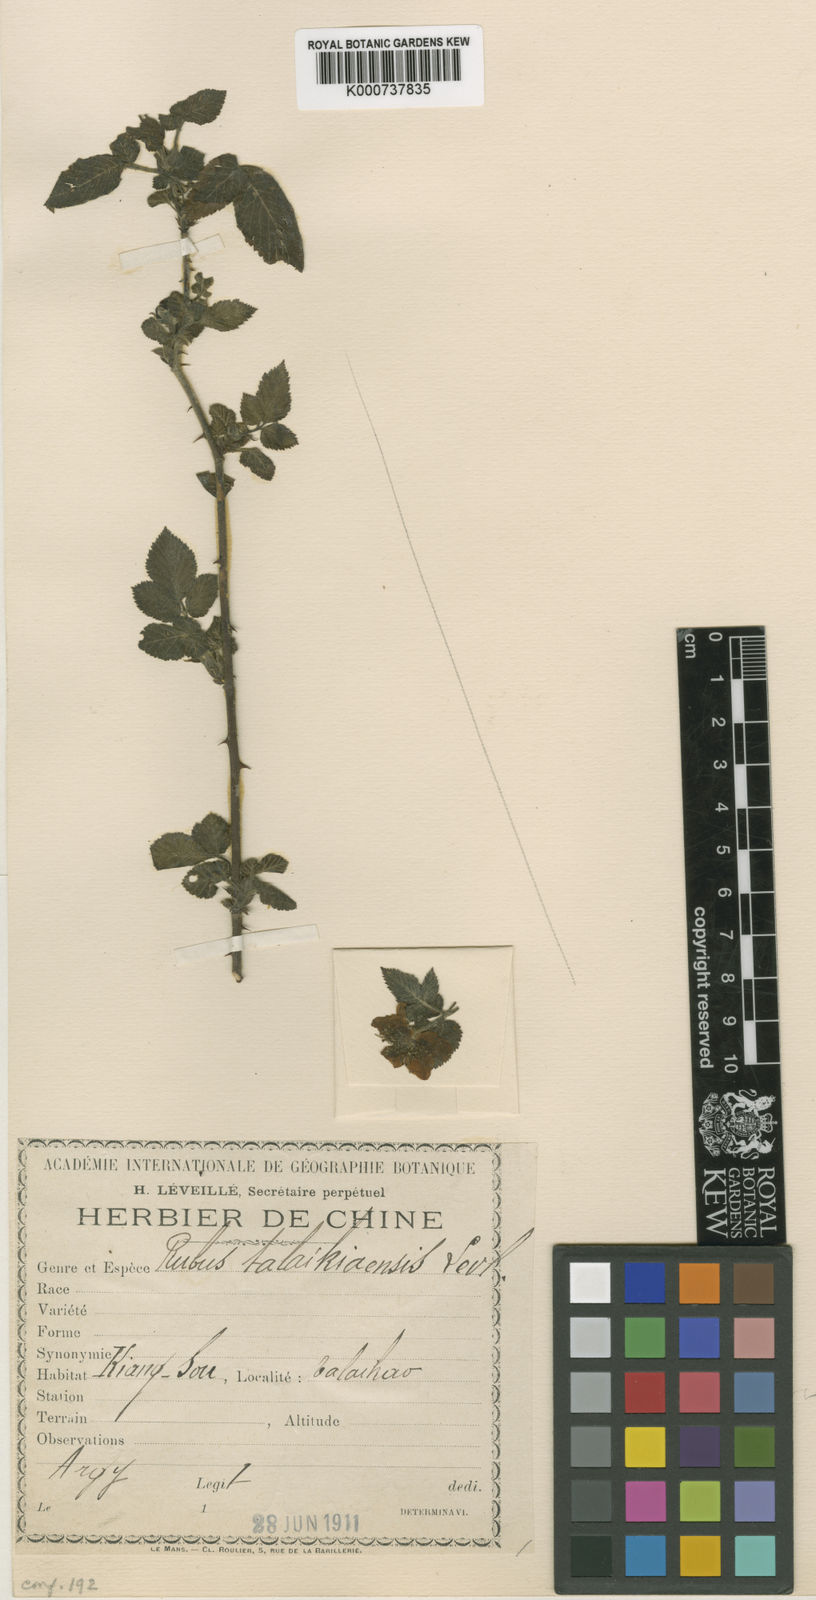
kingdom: Plantae
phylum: Tracheophyta
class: Magnoliopsida
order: Rosales
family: Rosaceae
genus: Rubus
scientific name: Rubus
